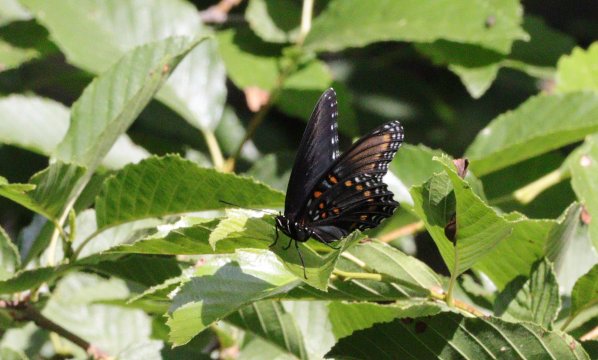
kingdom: Animalia
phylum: Arthropoda
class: Insecta
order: Lepidoptera
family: Nymphalidae
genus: Limenitis
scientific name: Limenitis arthemis
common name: Red-spotted Admiral
